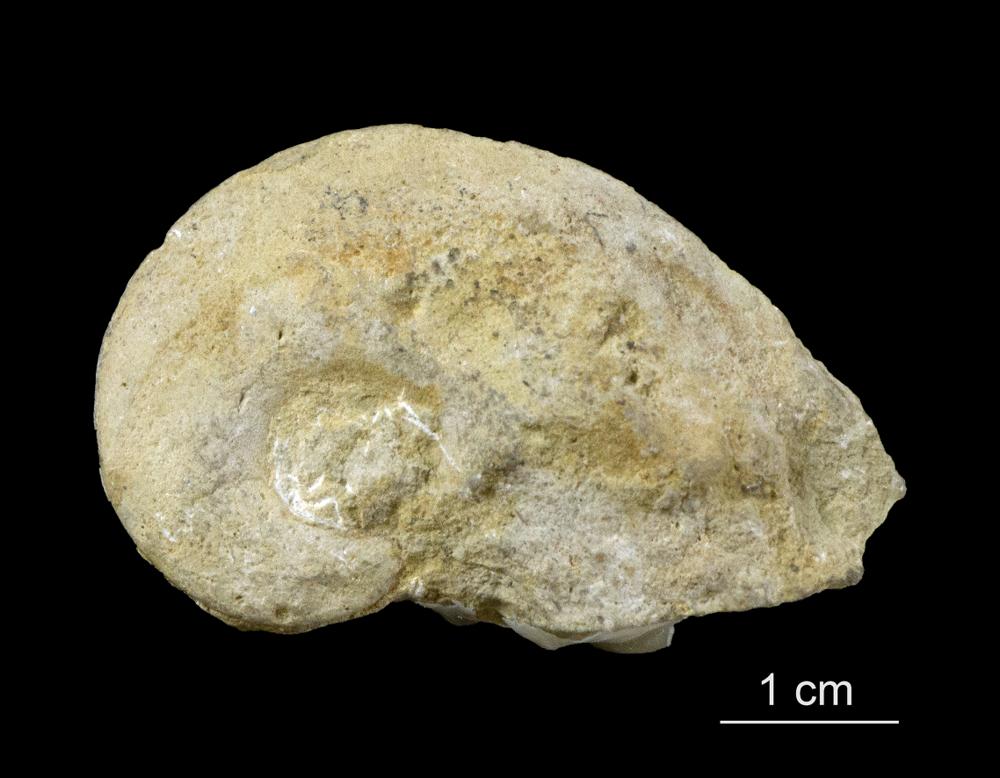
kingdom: Animalia
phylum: Mollusca
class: Gastropoda
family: Bellerophontidae
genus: Temnodiscus
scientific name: Temnodiscus accola
